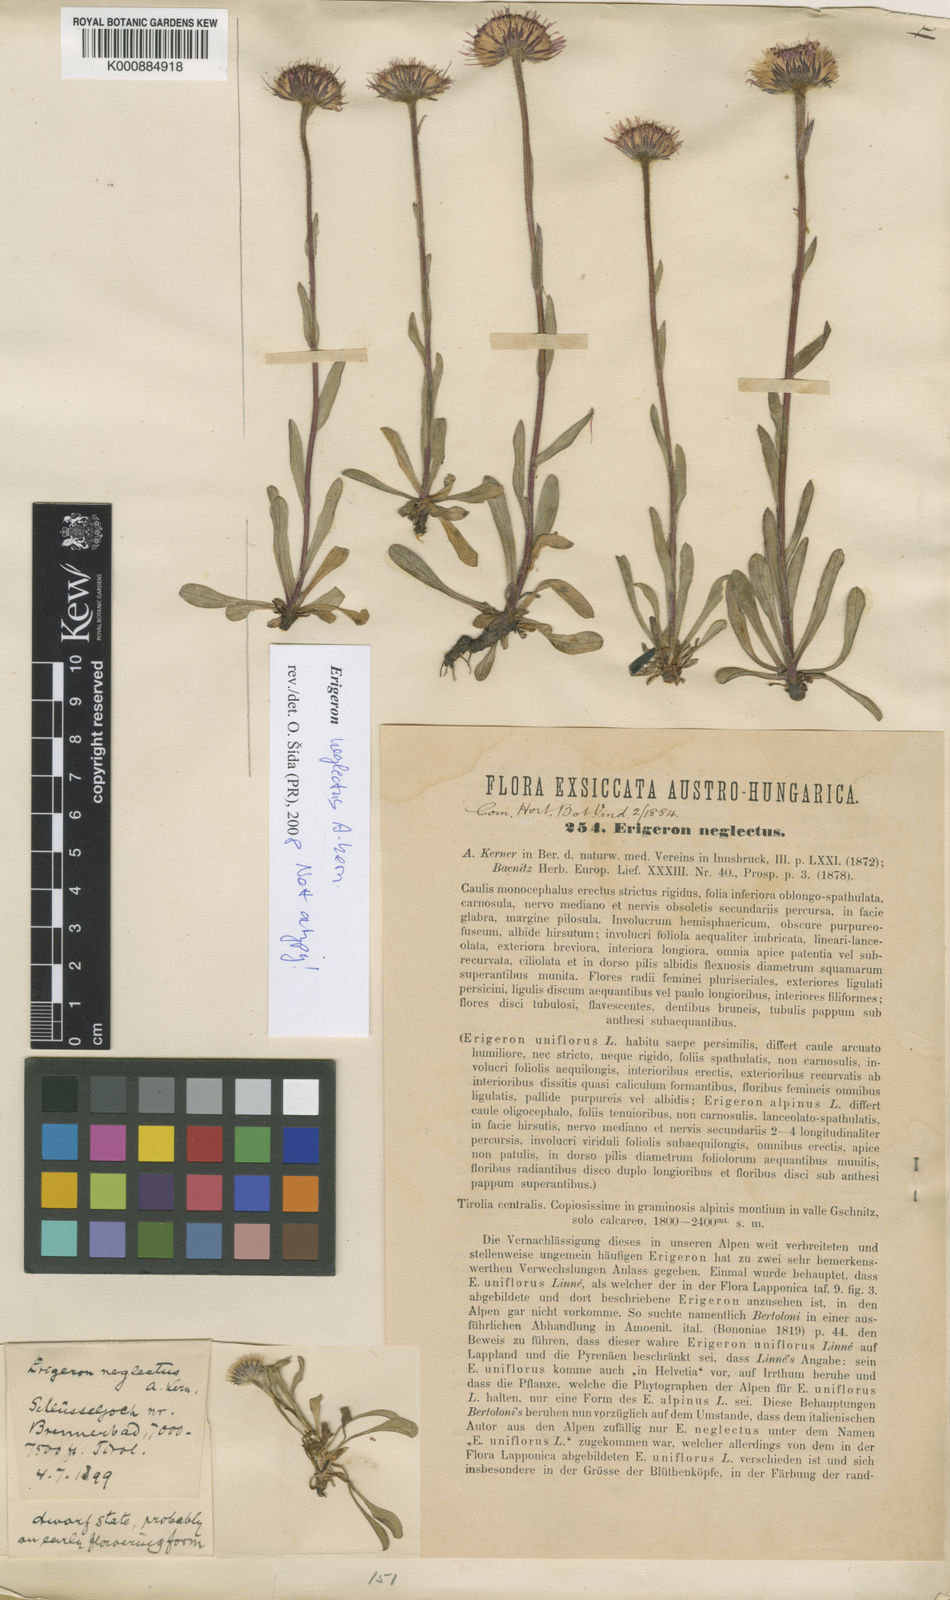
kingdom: Plantae
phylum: Tracheophyta
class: Magnoliopsida
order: Asterales
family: Asteraceae
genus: Erigeron
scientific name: Erigeron uniflorus
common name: Northern daisy
